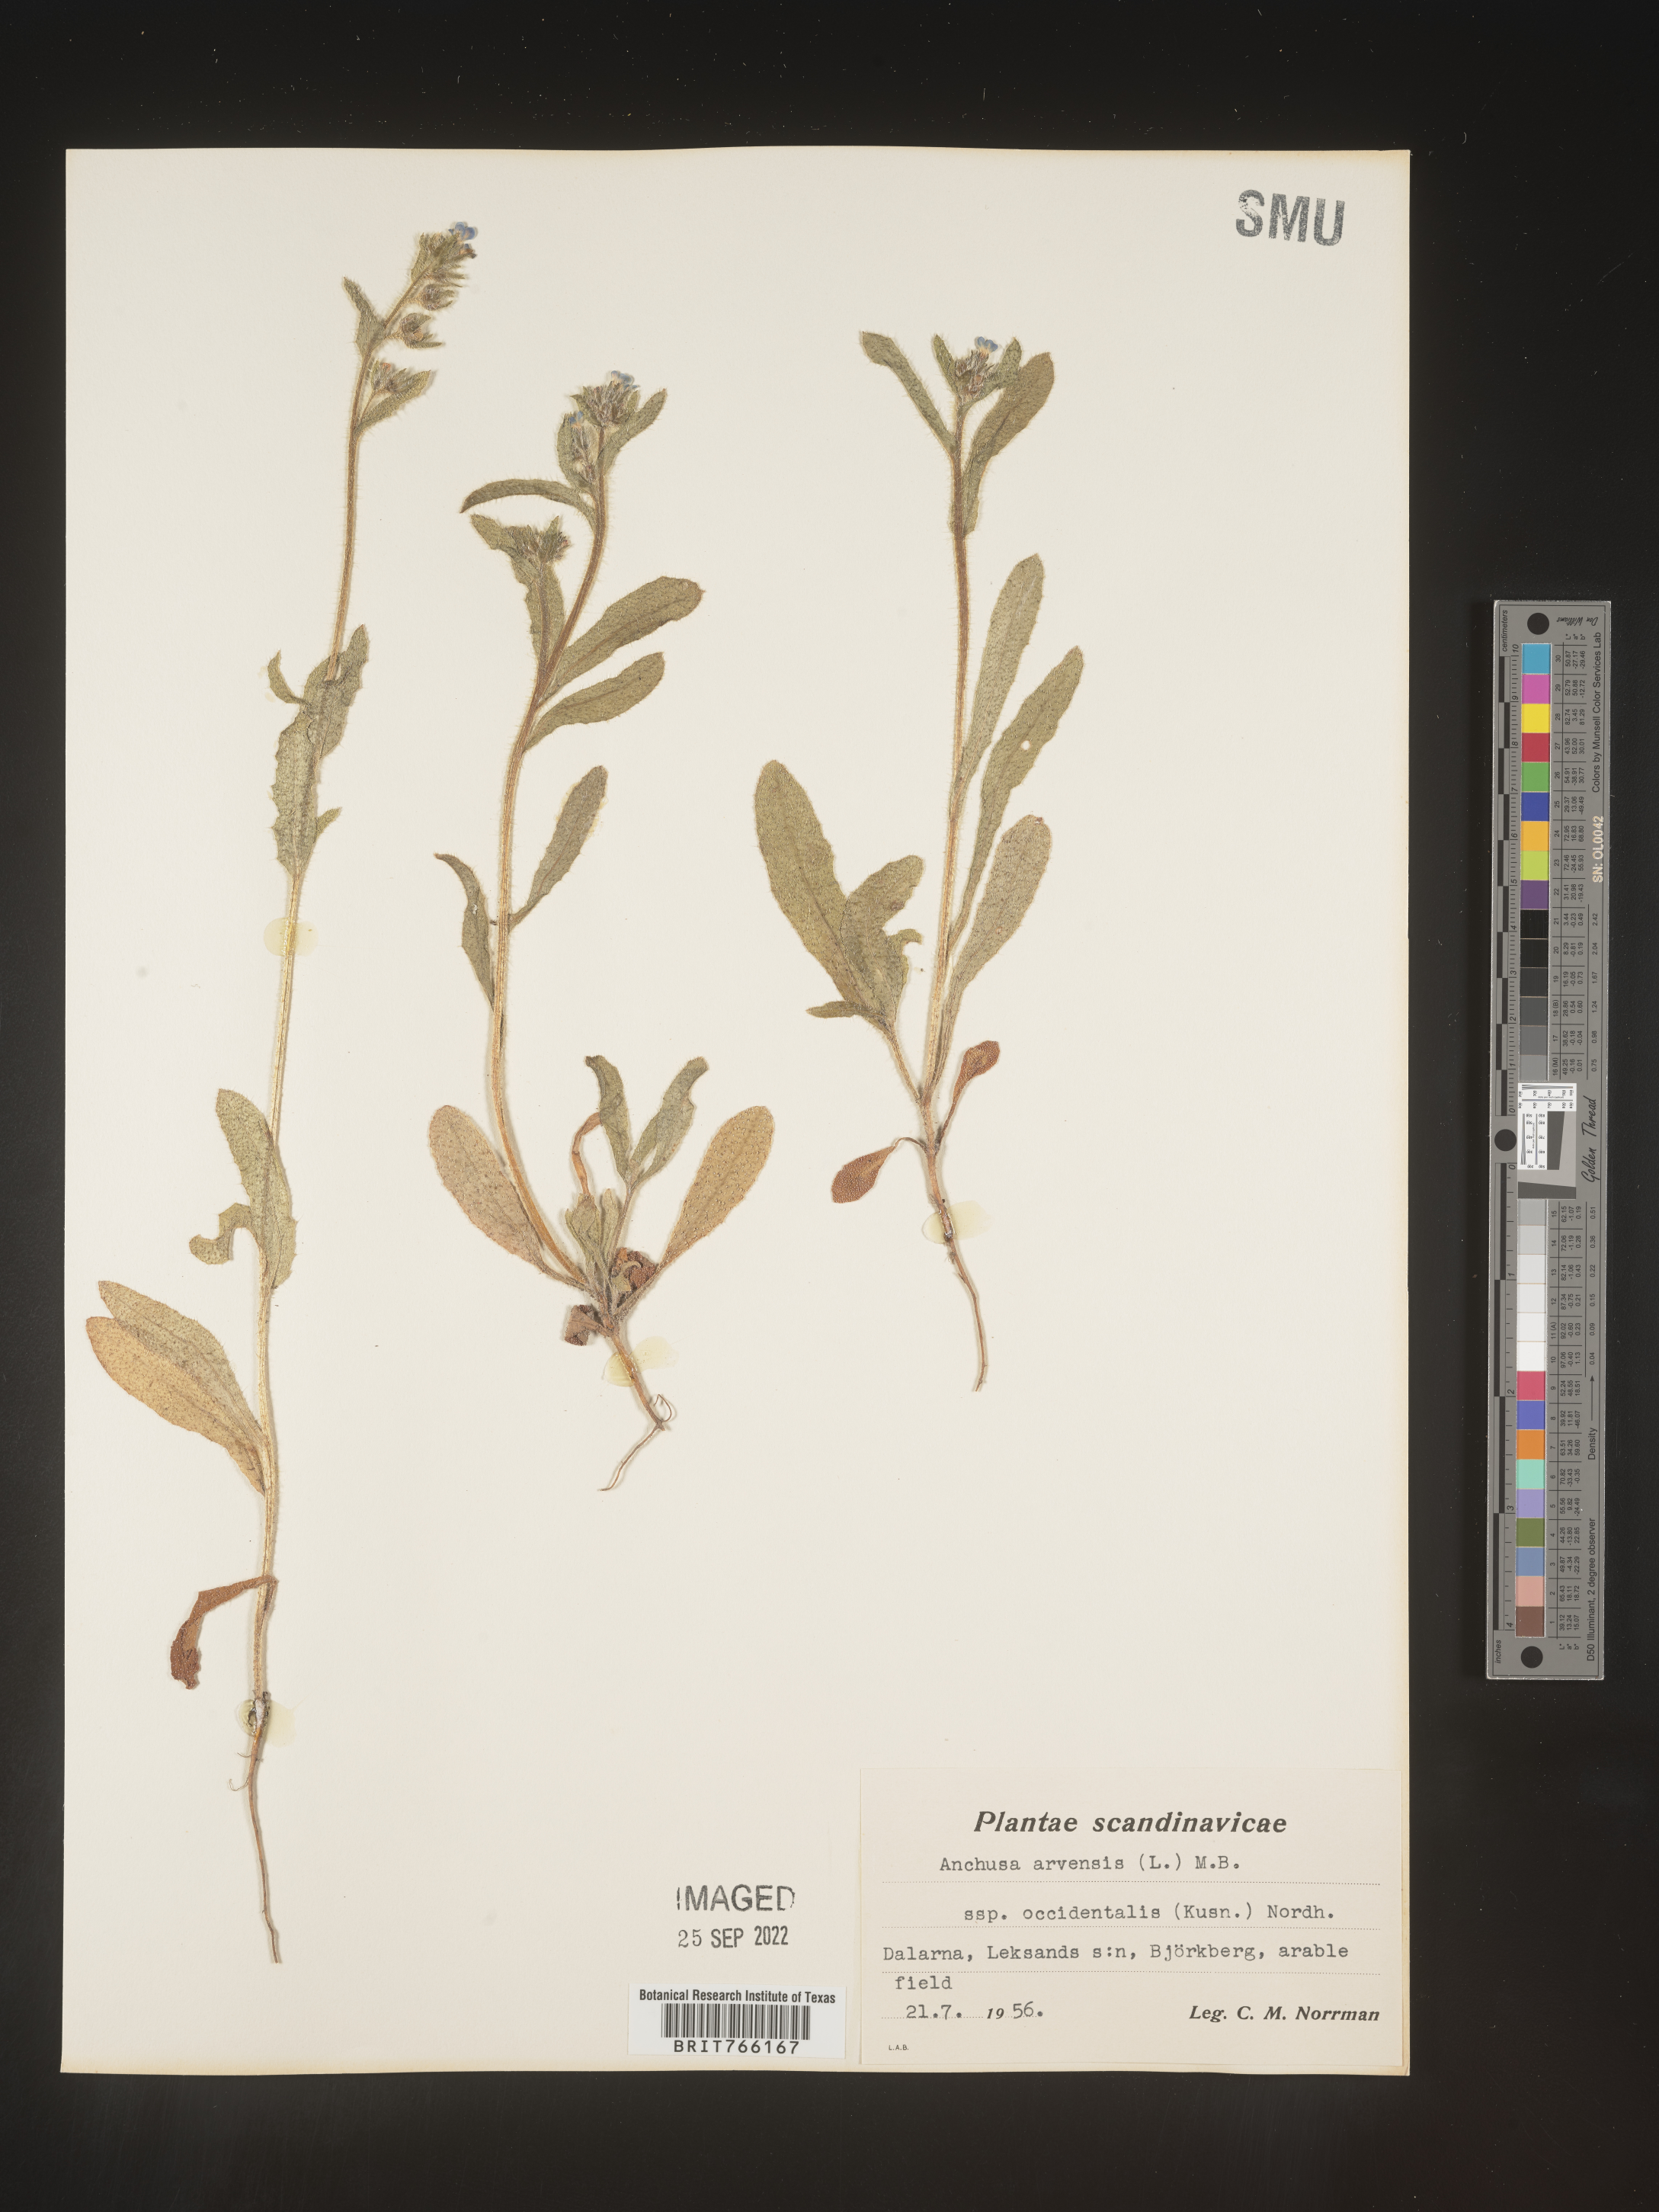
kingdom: Plantae
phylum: Tracheophyta
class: Magnoliopsida
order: Boraginales
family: Boraginaceae
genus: Anchusa
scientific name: Anchusa
